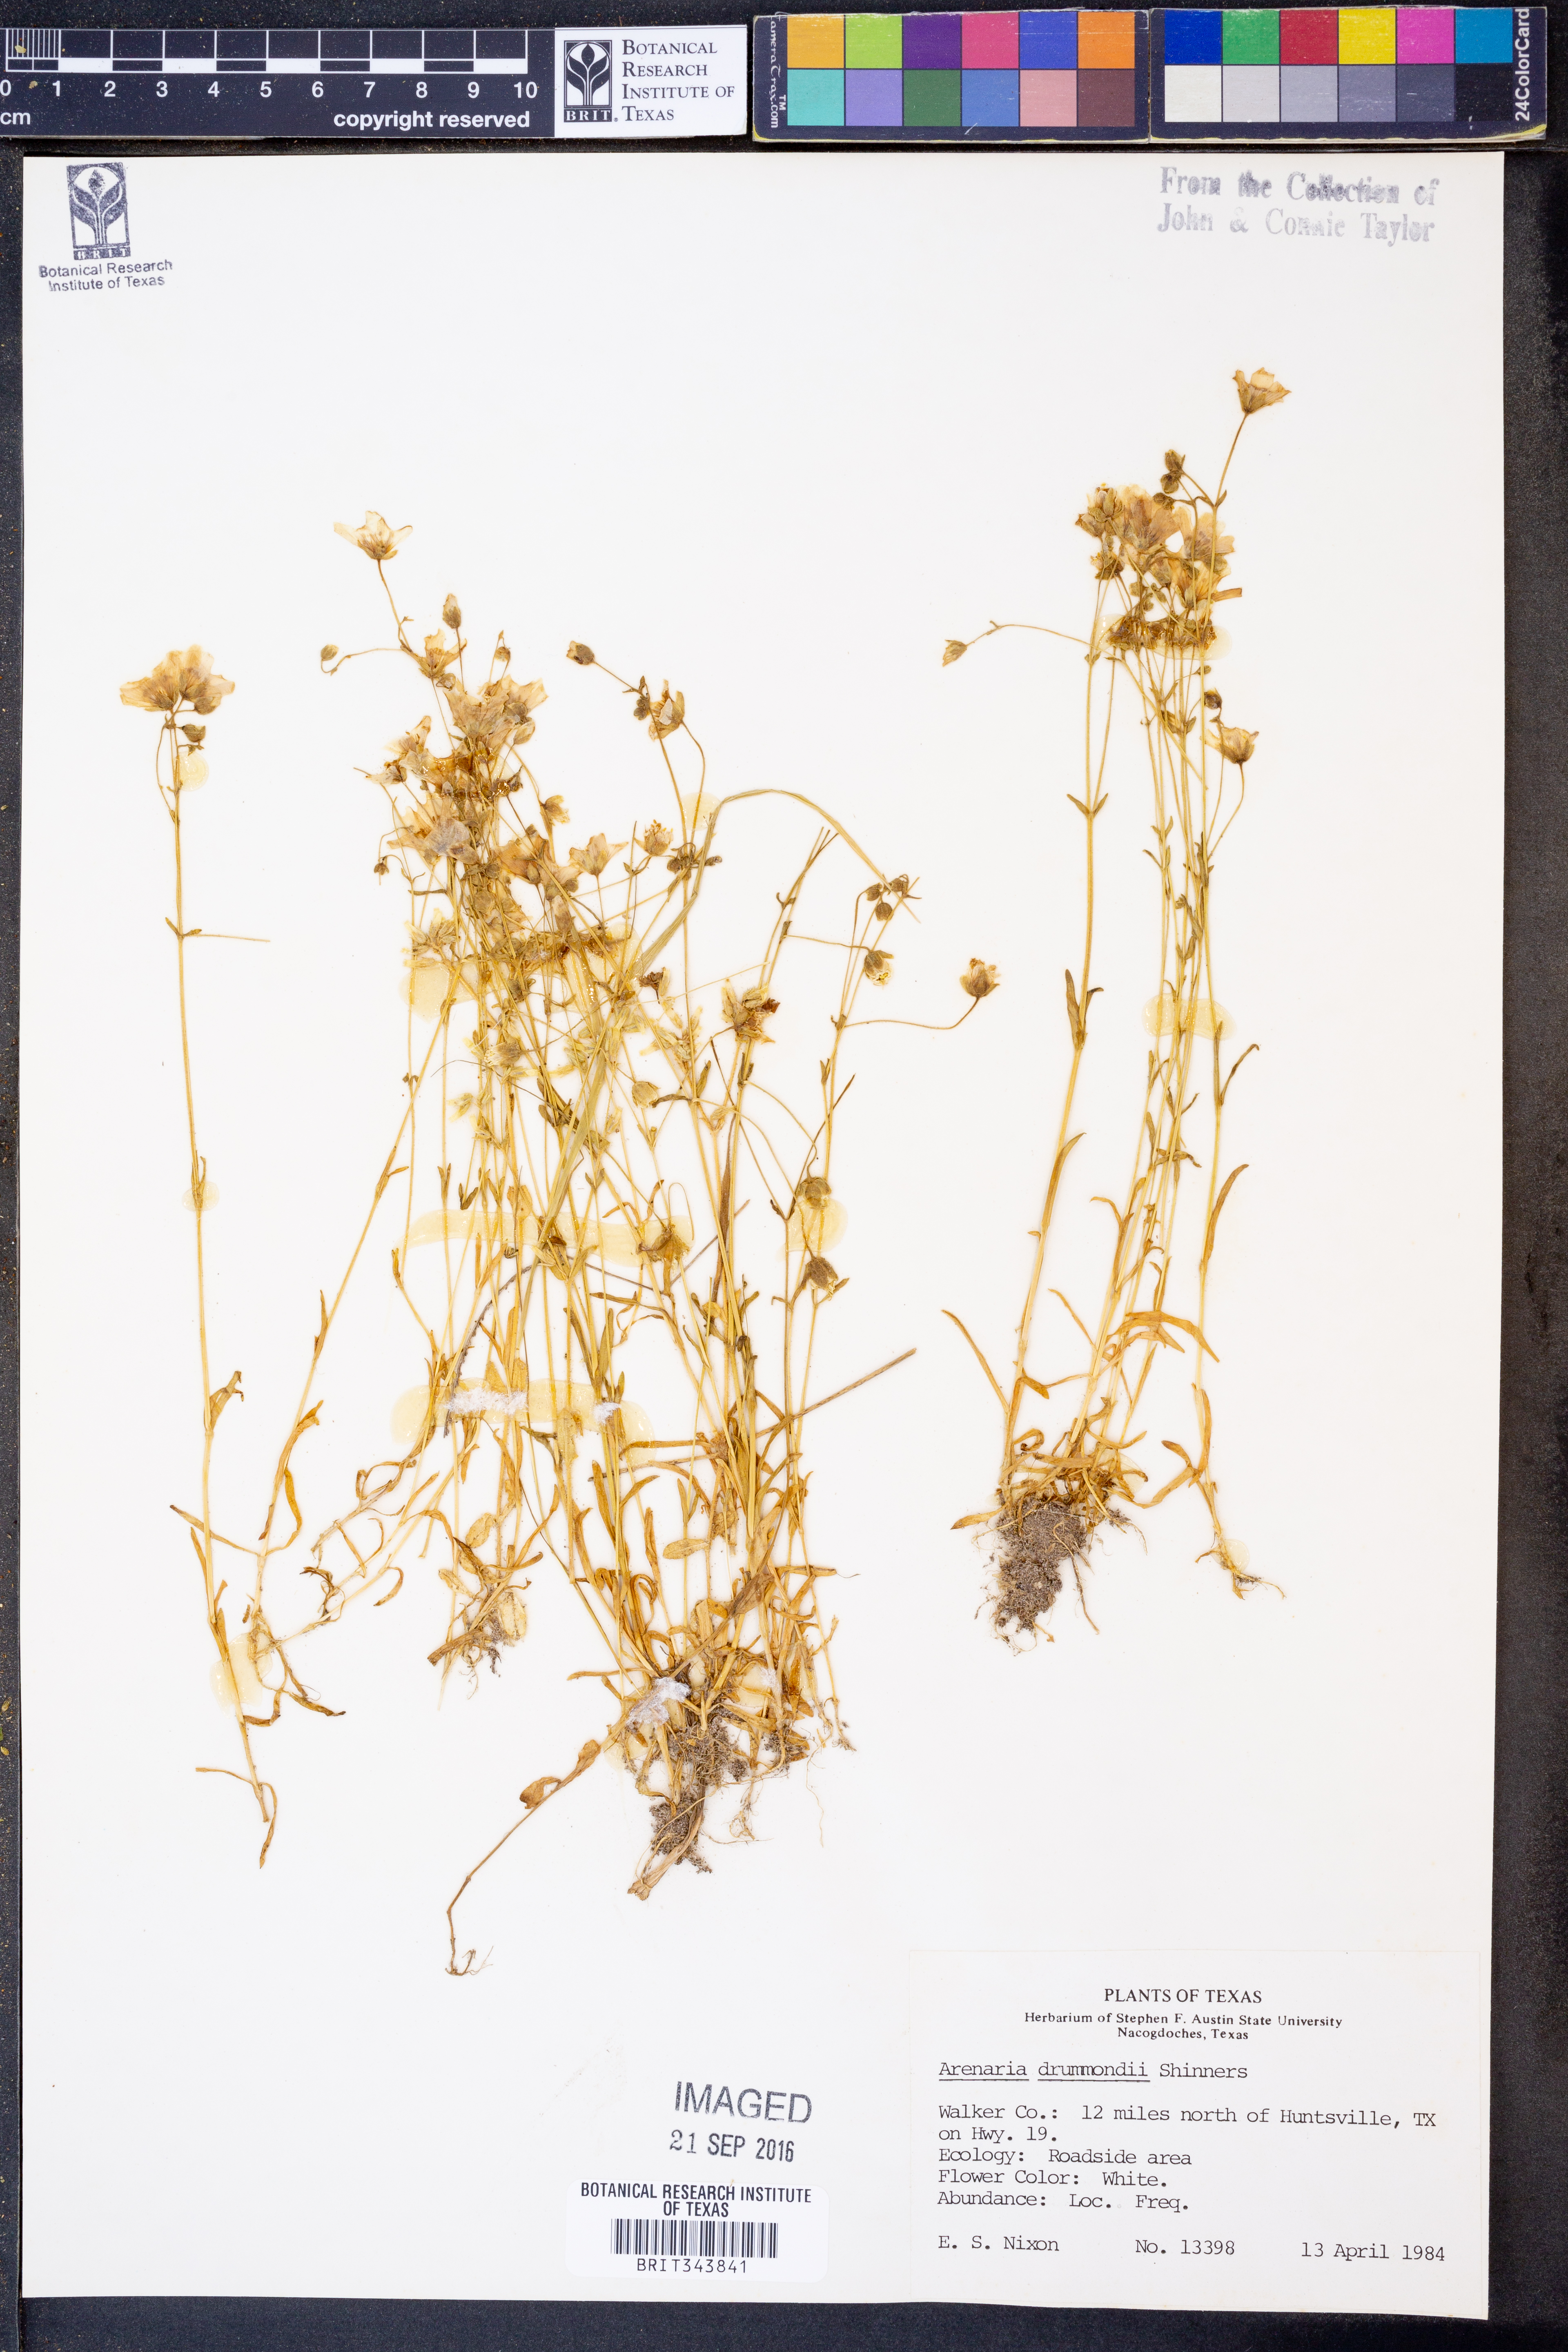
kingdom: Plantae
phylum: Tracheophyta
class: Magnoliopsida
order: Caryophyllales
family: Caryophyllaceae
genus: Geocarpon
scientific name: Geocarpon nuttallii
